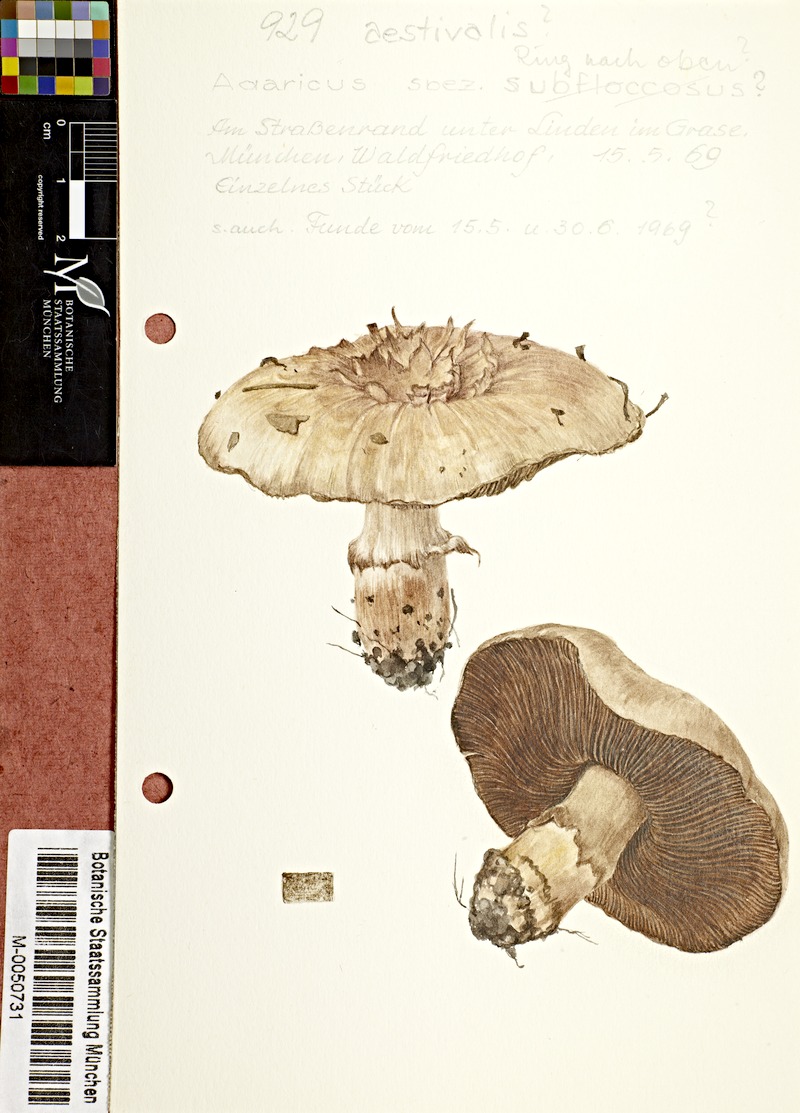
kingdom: Fungi
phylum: Basidiomycota
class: Agaricomycetes
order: Agaricales
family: Agaricaceae
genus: Agaricus
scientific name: Agaricus altipes
